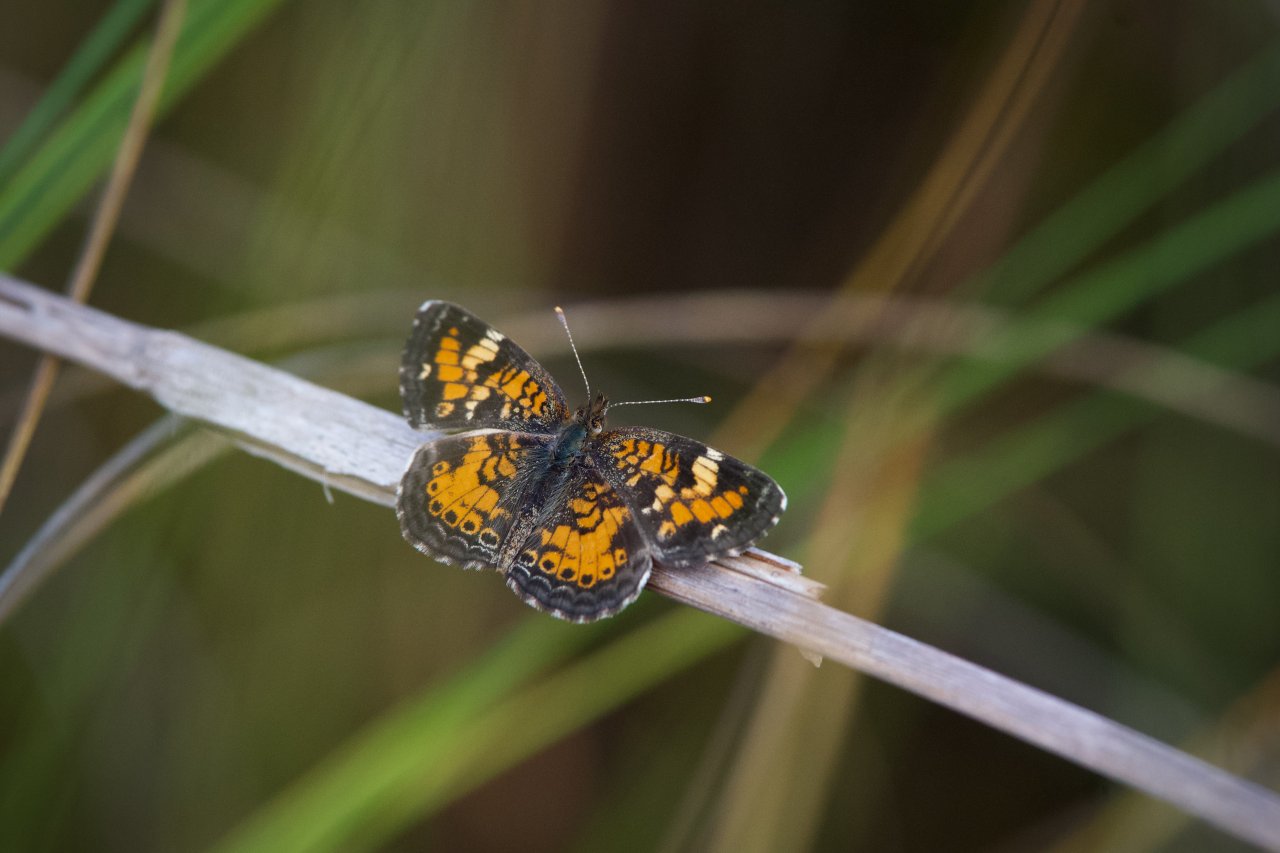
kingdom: Animalia
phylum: Arthropoda
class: Insecta
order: Lepidoptera
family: Nymphalidae
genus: Phyciodes
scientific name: Phyciodes phaon
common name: Phaon Crescent
